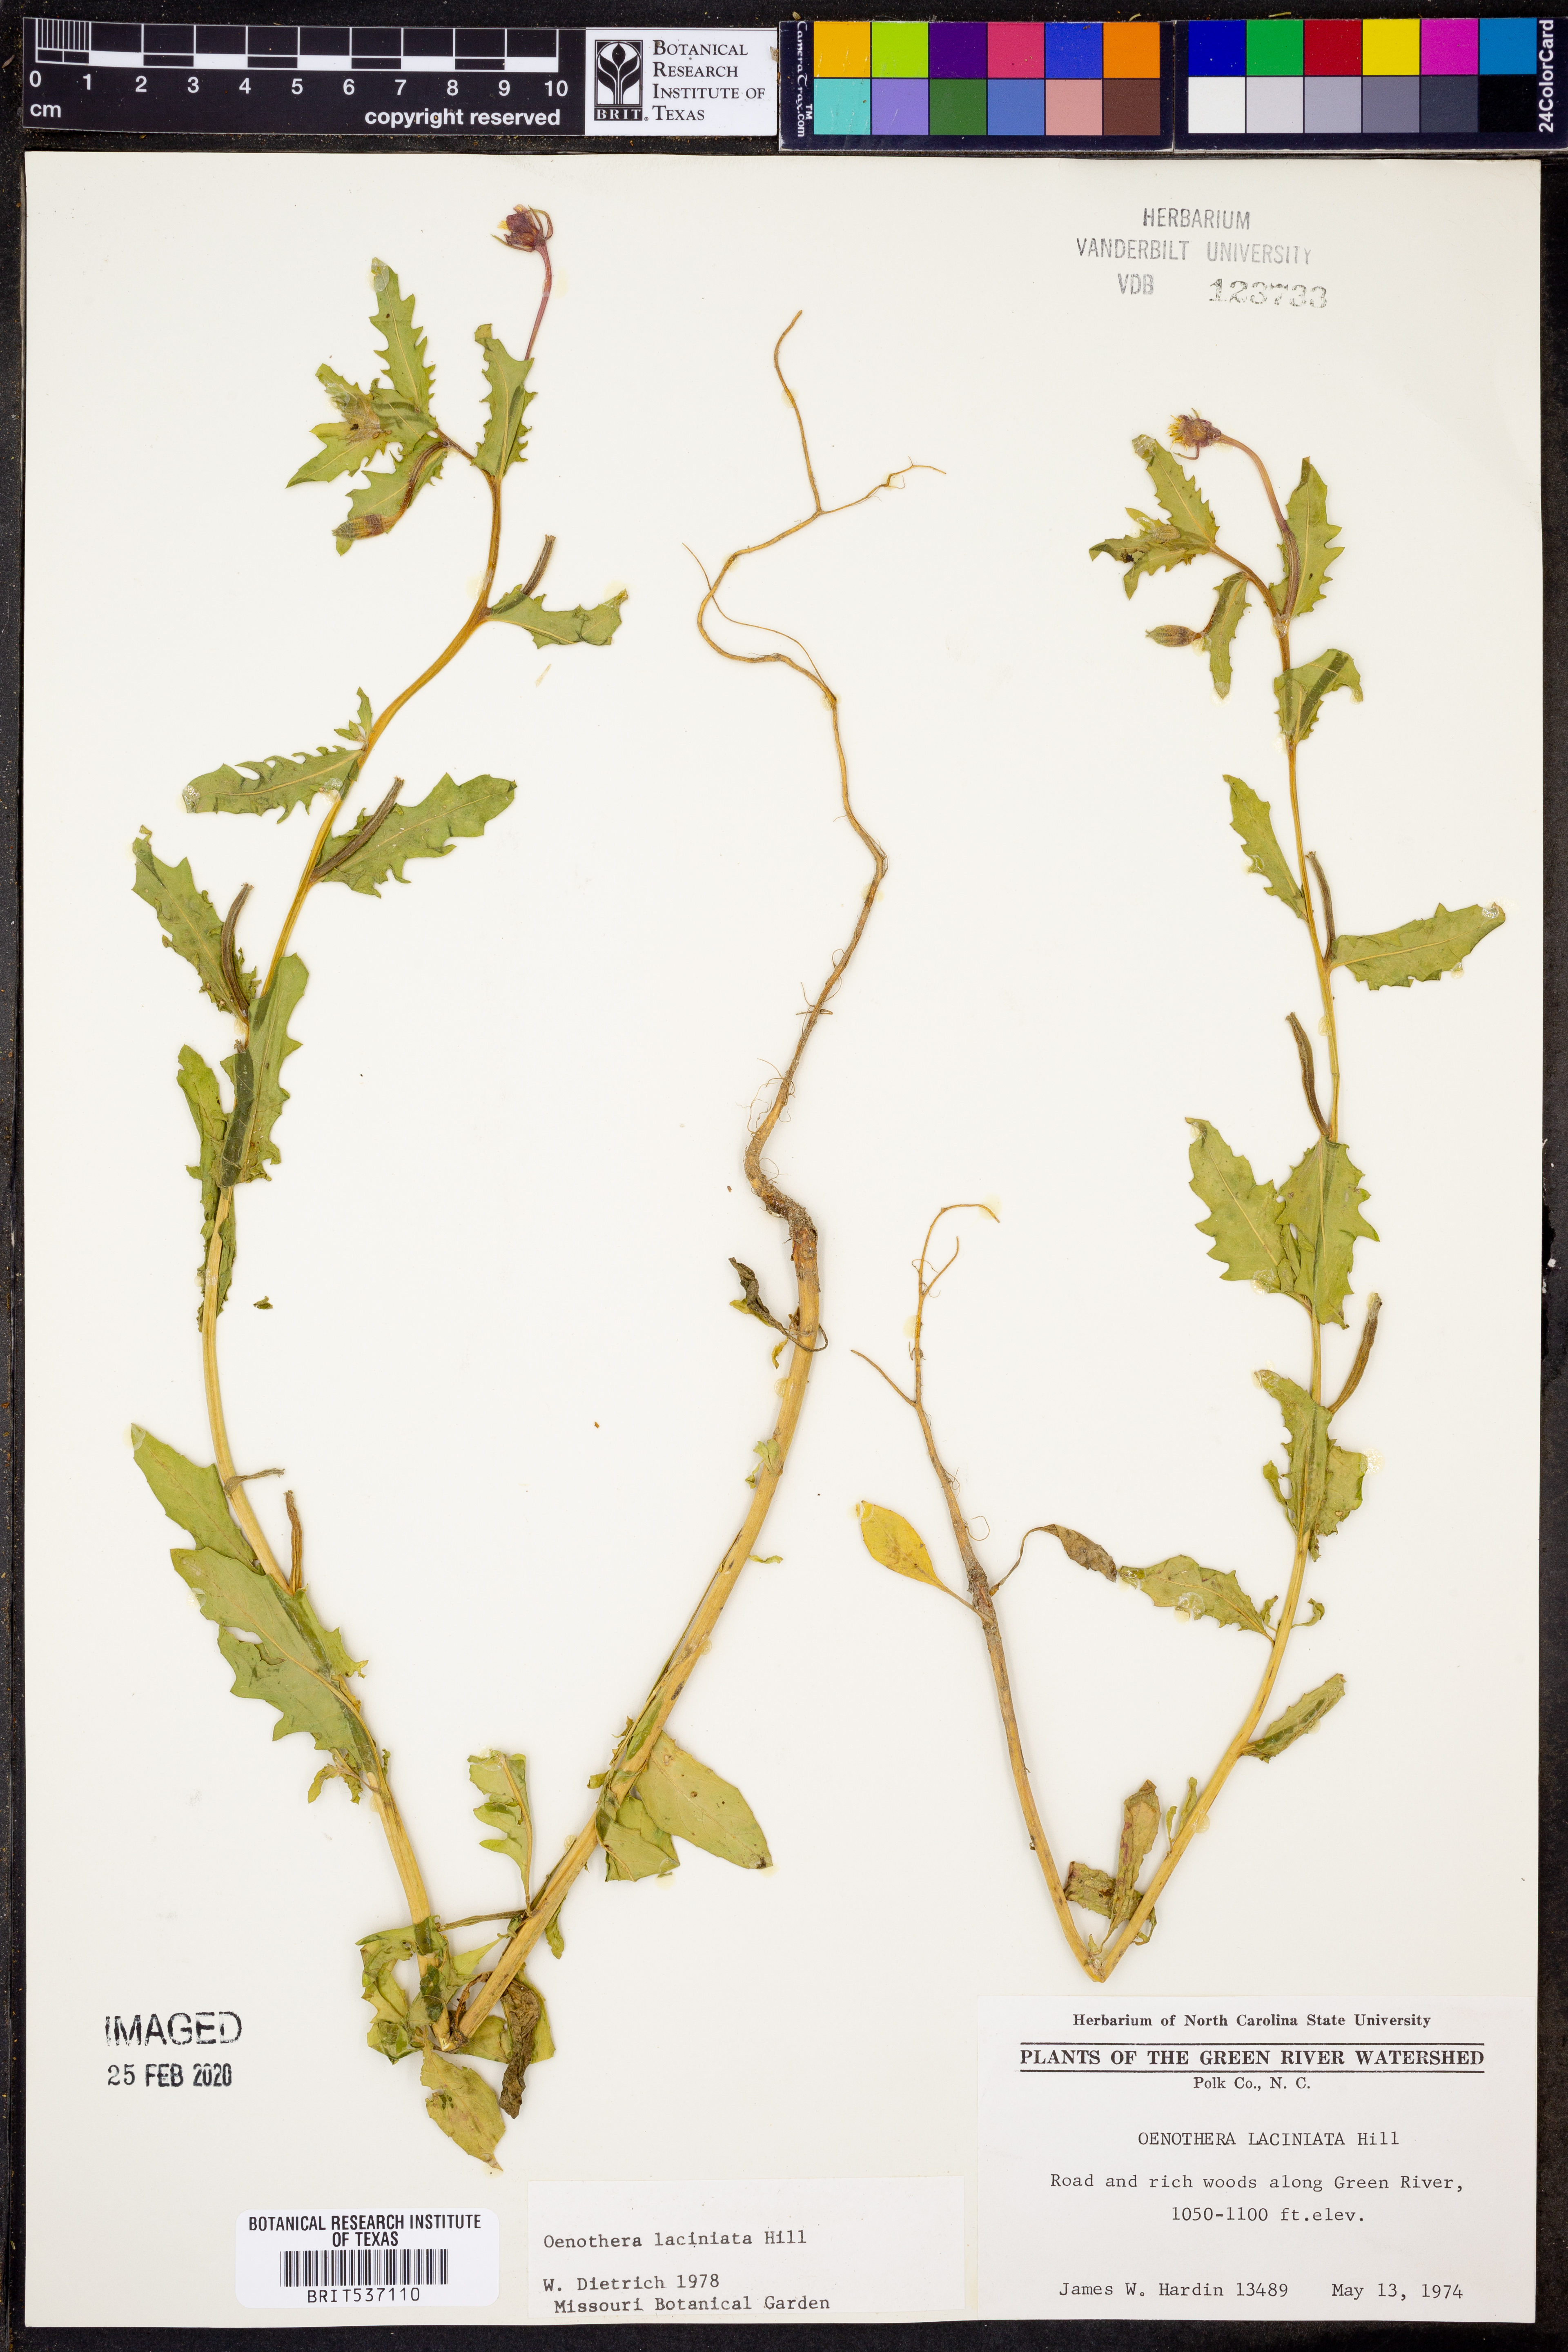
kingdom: Plantae
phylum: Tracheophyta
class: Magnoliopsida
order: Myrtales
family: Onagraceae
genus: Oenothera
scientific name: Oenothera laciniata
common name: Cut-leaved evening-primrose
